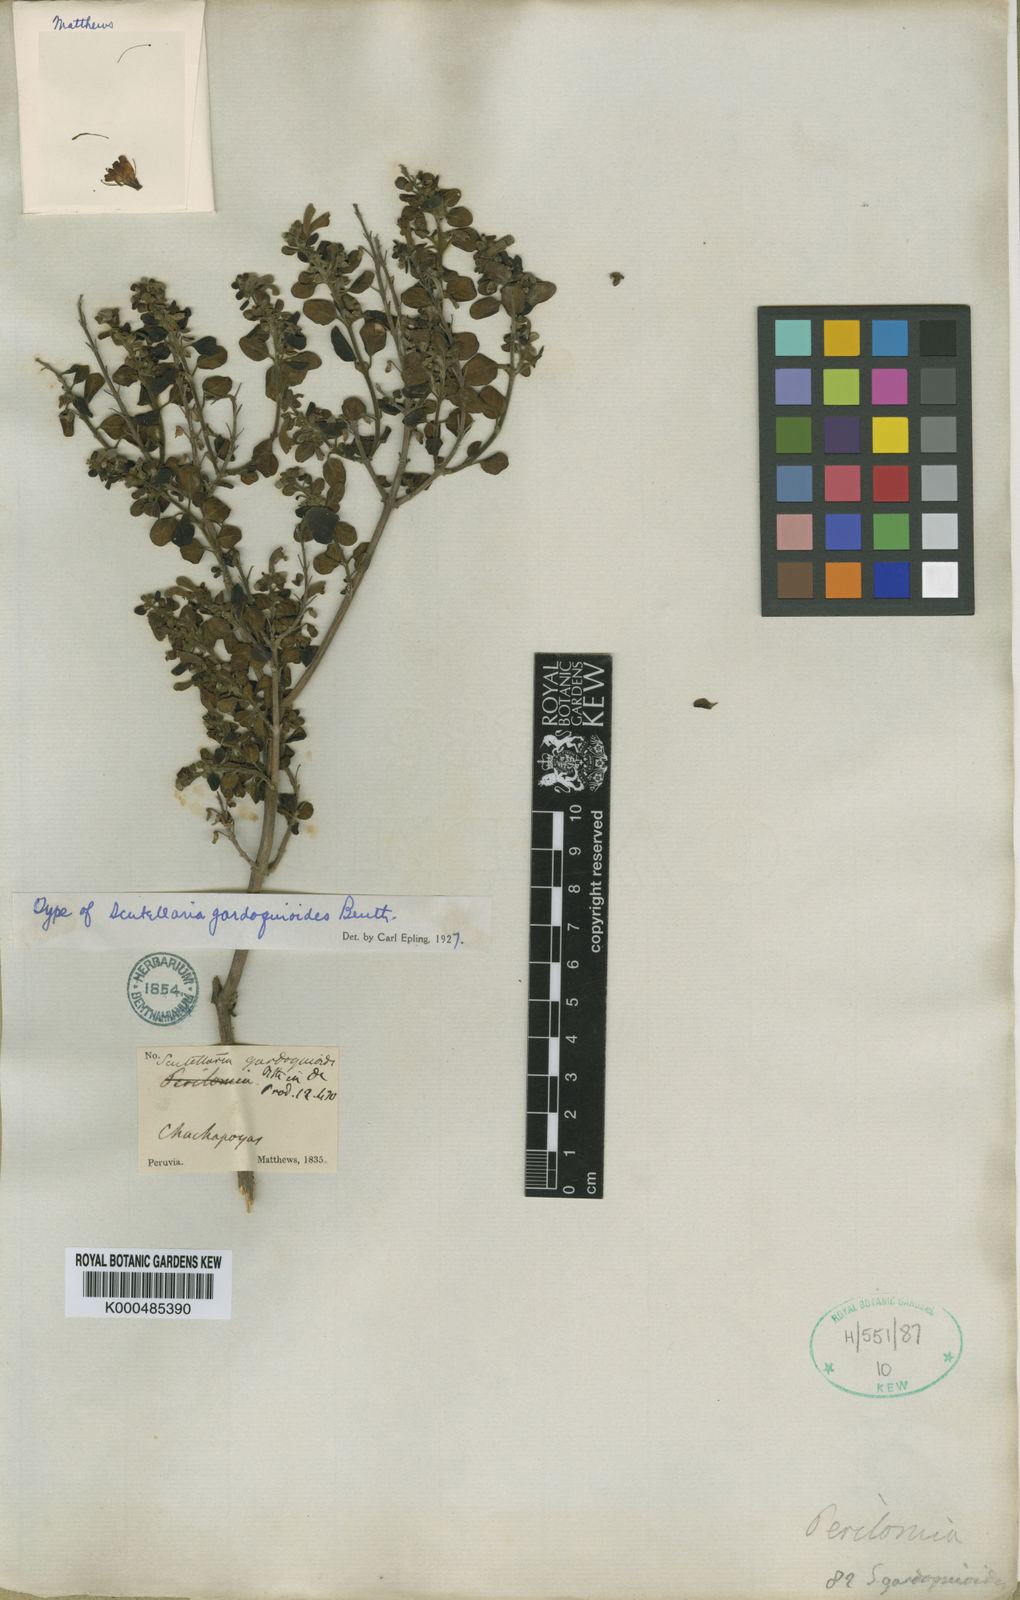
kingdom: Plantae
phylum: Tracheophyta
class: Magnoliopsida
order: Lamiales
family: Lamiaceae
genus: Scutellaria
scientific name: Scutellaria gardoquioides
